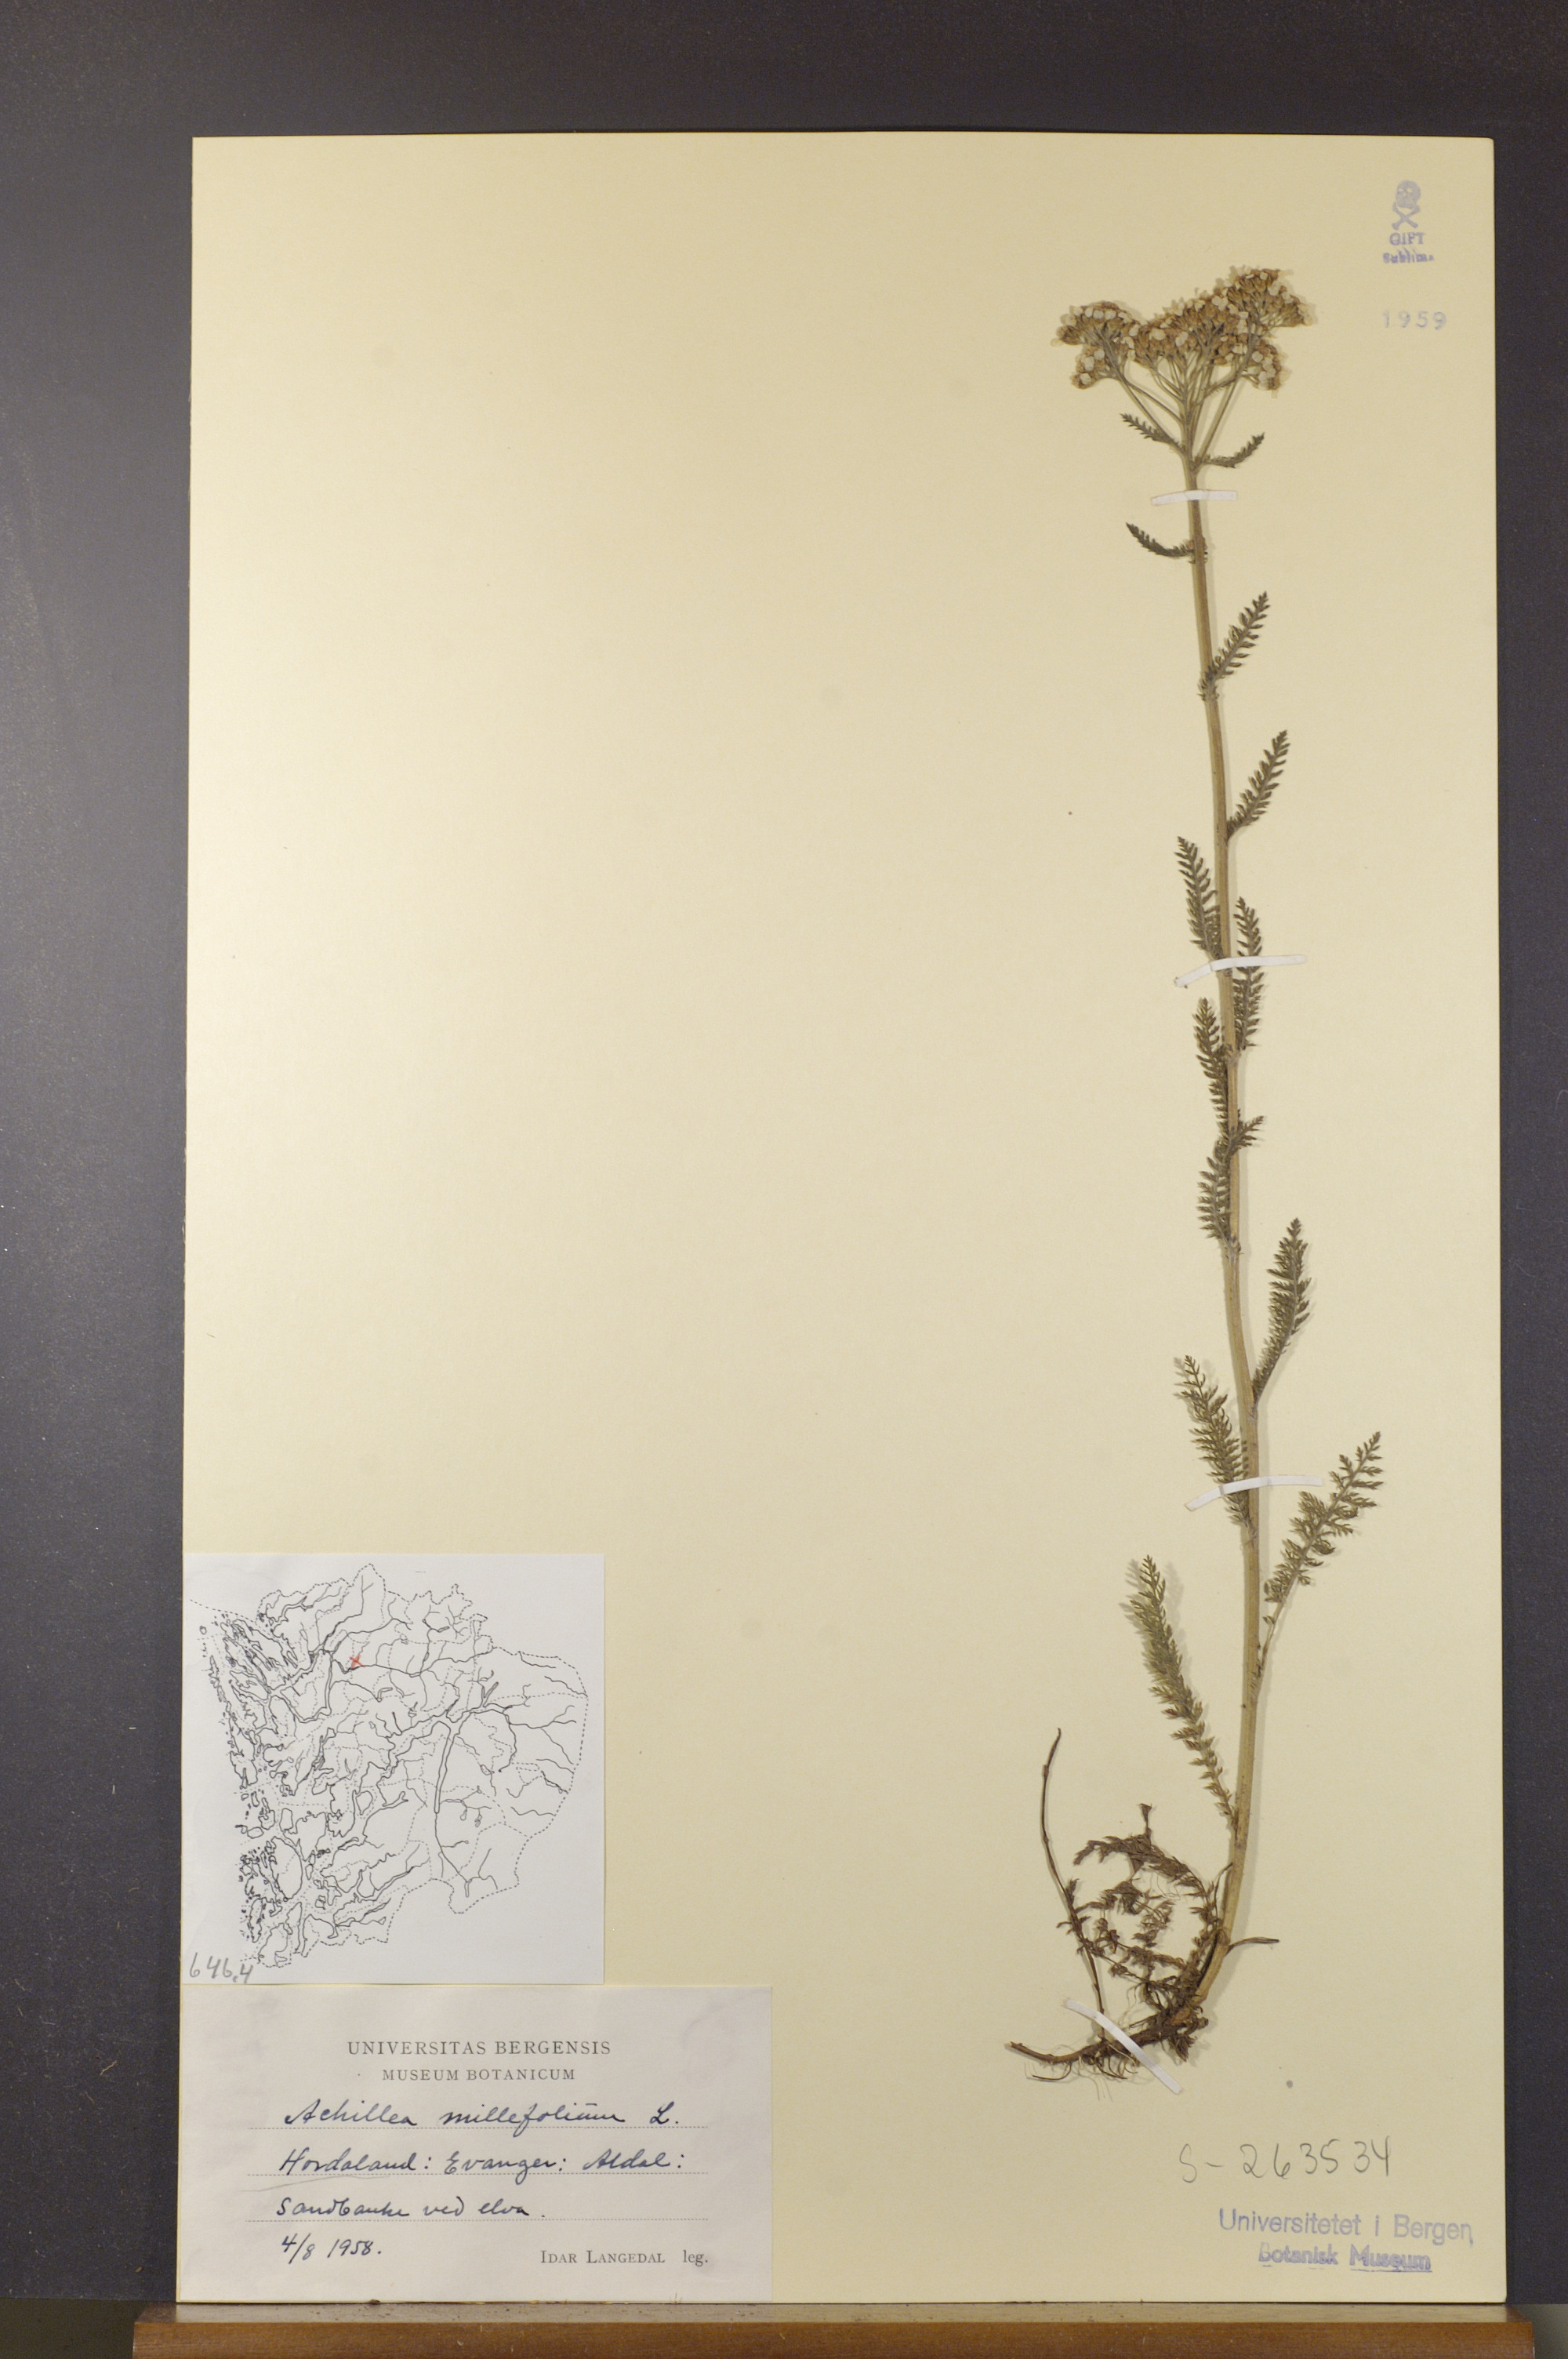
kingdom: Plantae
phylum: Tracheophyta
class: Magnoliopsida
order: Asterales
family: Asteraceae
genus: Achillea
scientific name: Achillea millefolium
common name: Yarrow
